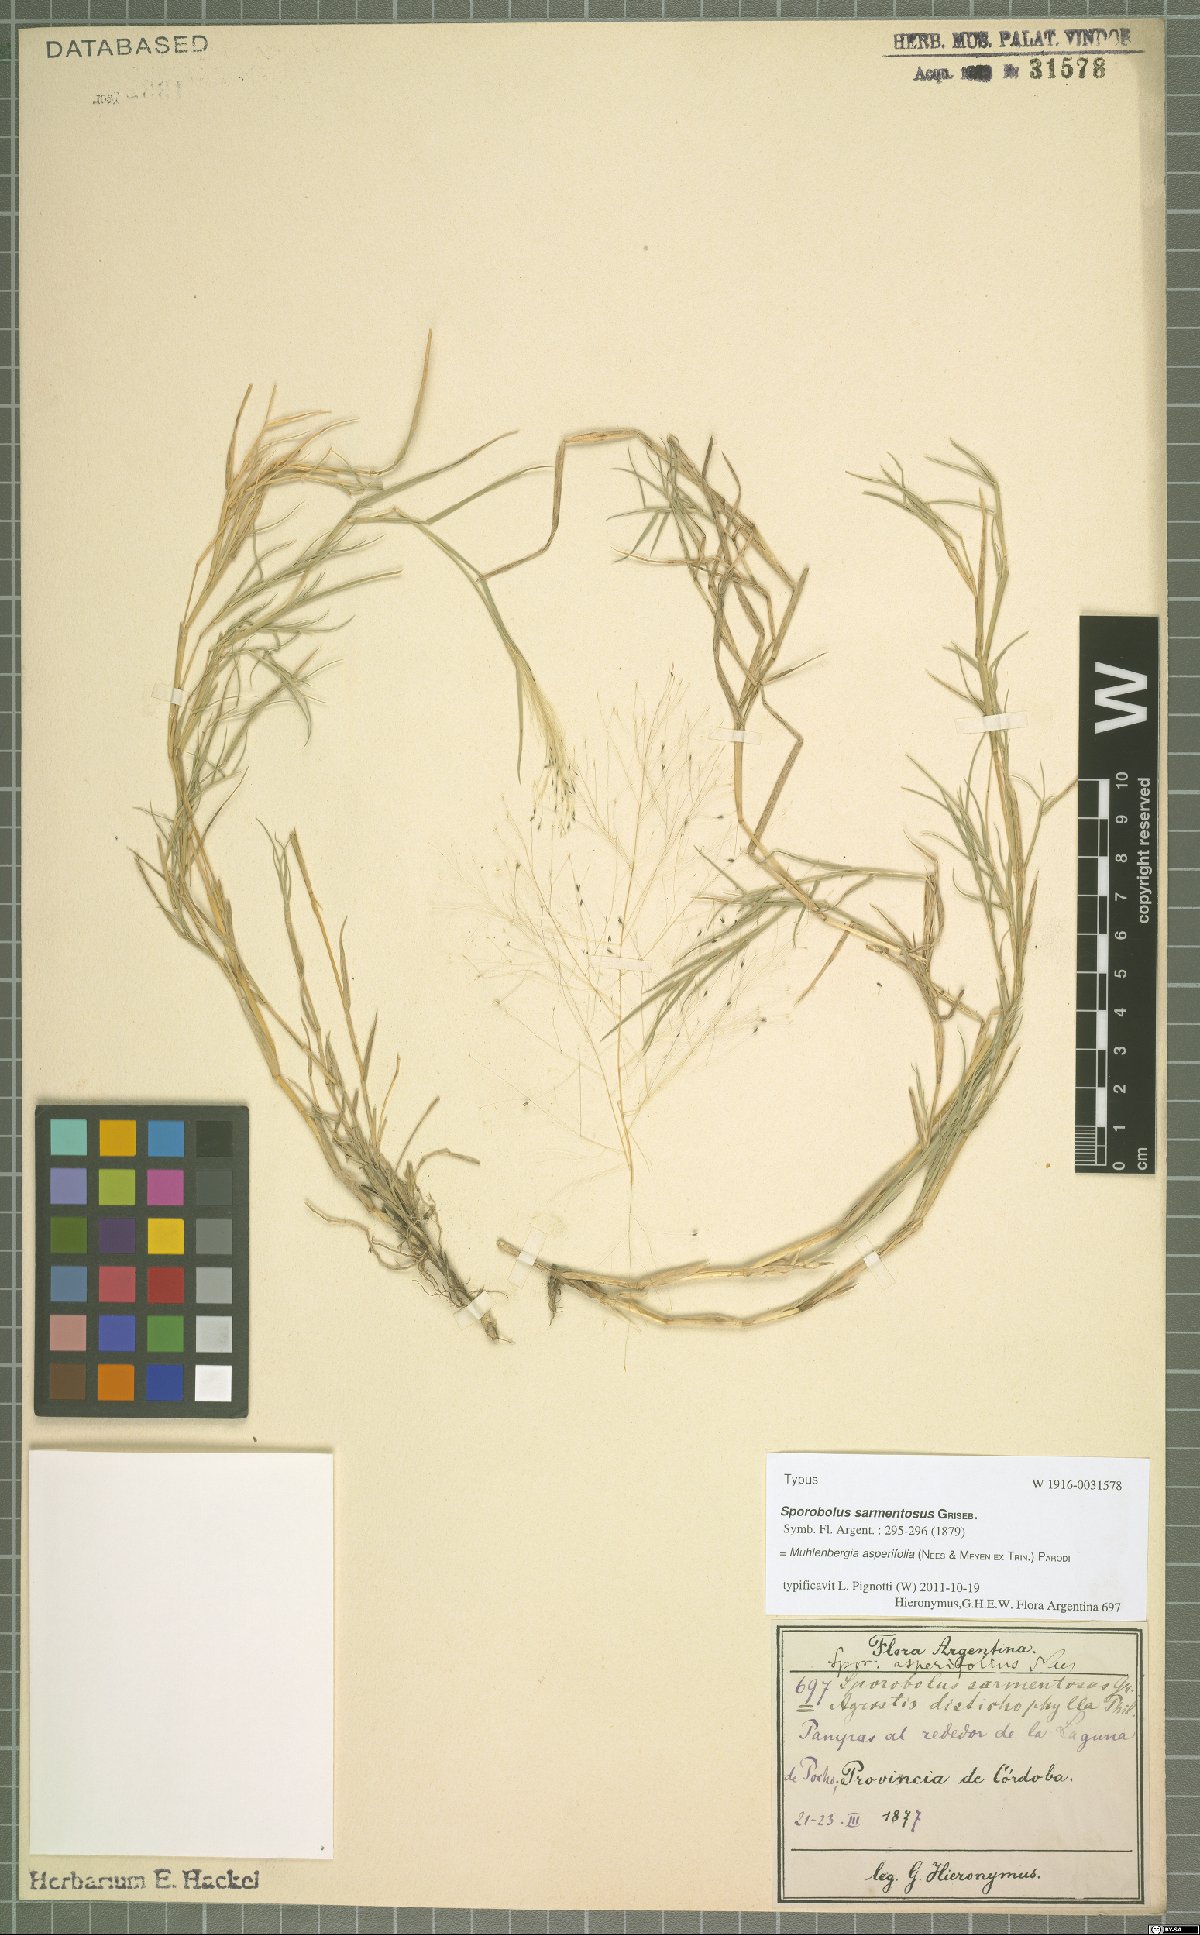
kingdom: Plantae
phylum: Tracheophyta
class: Liliopsida
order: Poales
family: Poaceae
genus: Muhlenbergia
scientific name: Muhlenbergia asperifolia
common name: Alkali muhly
